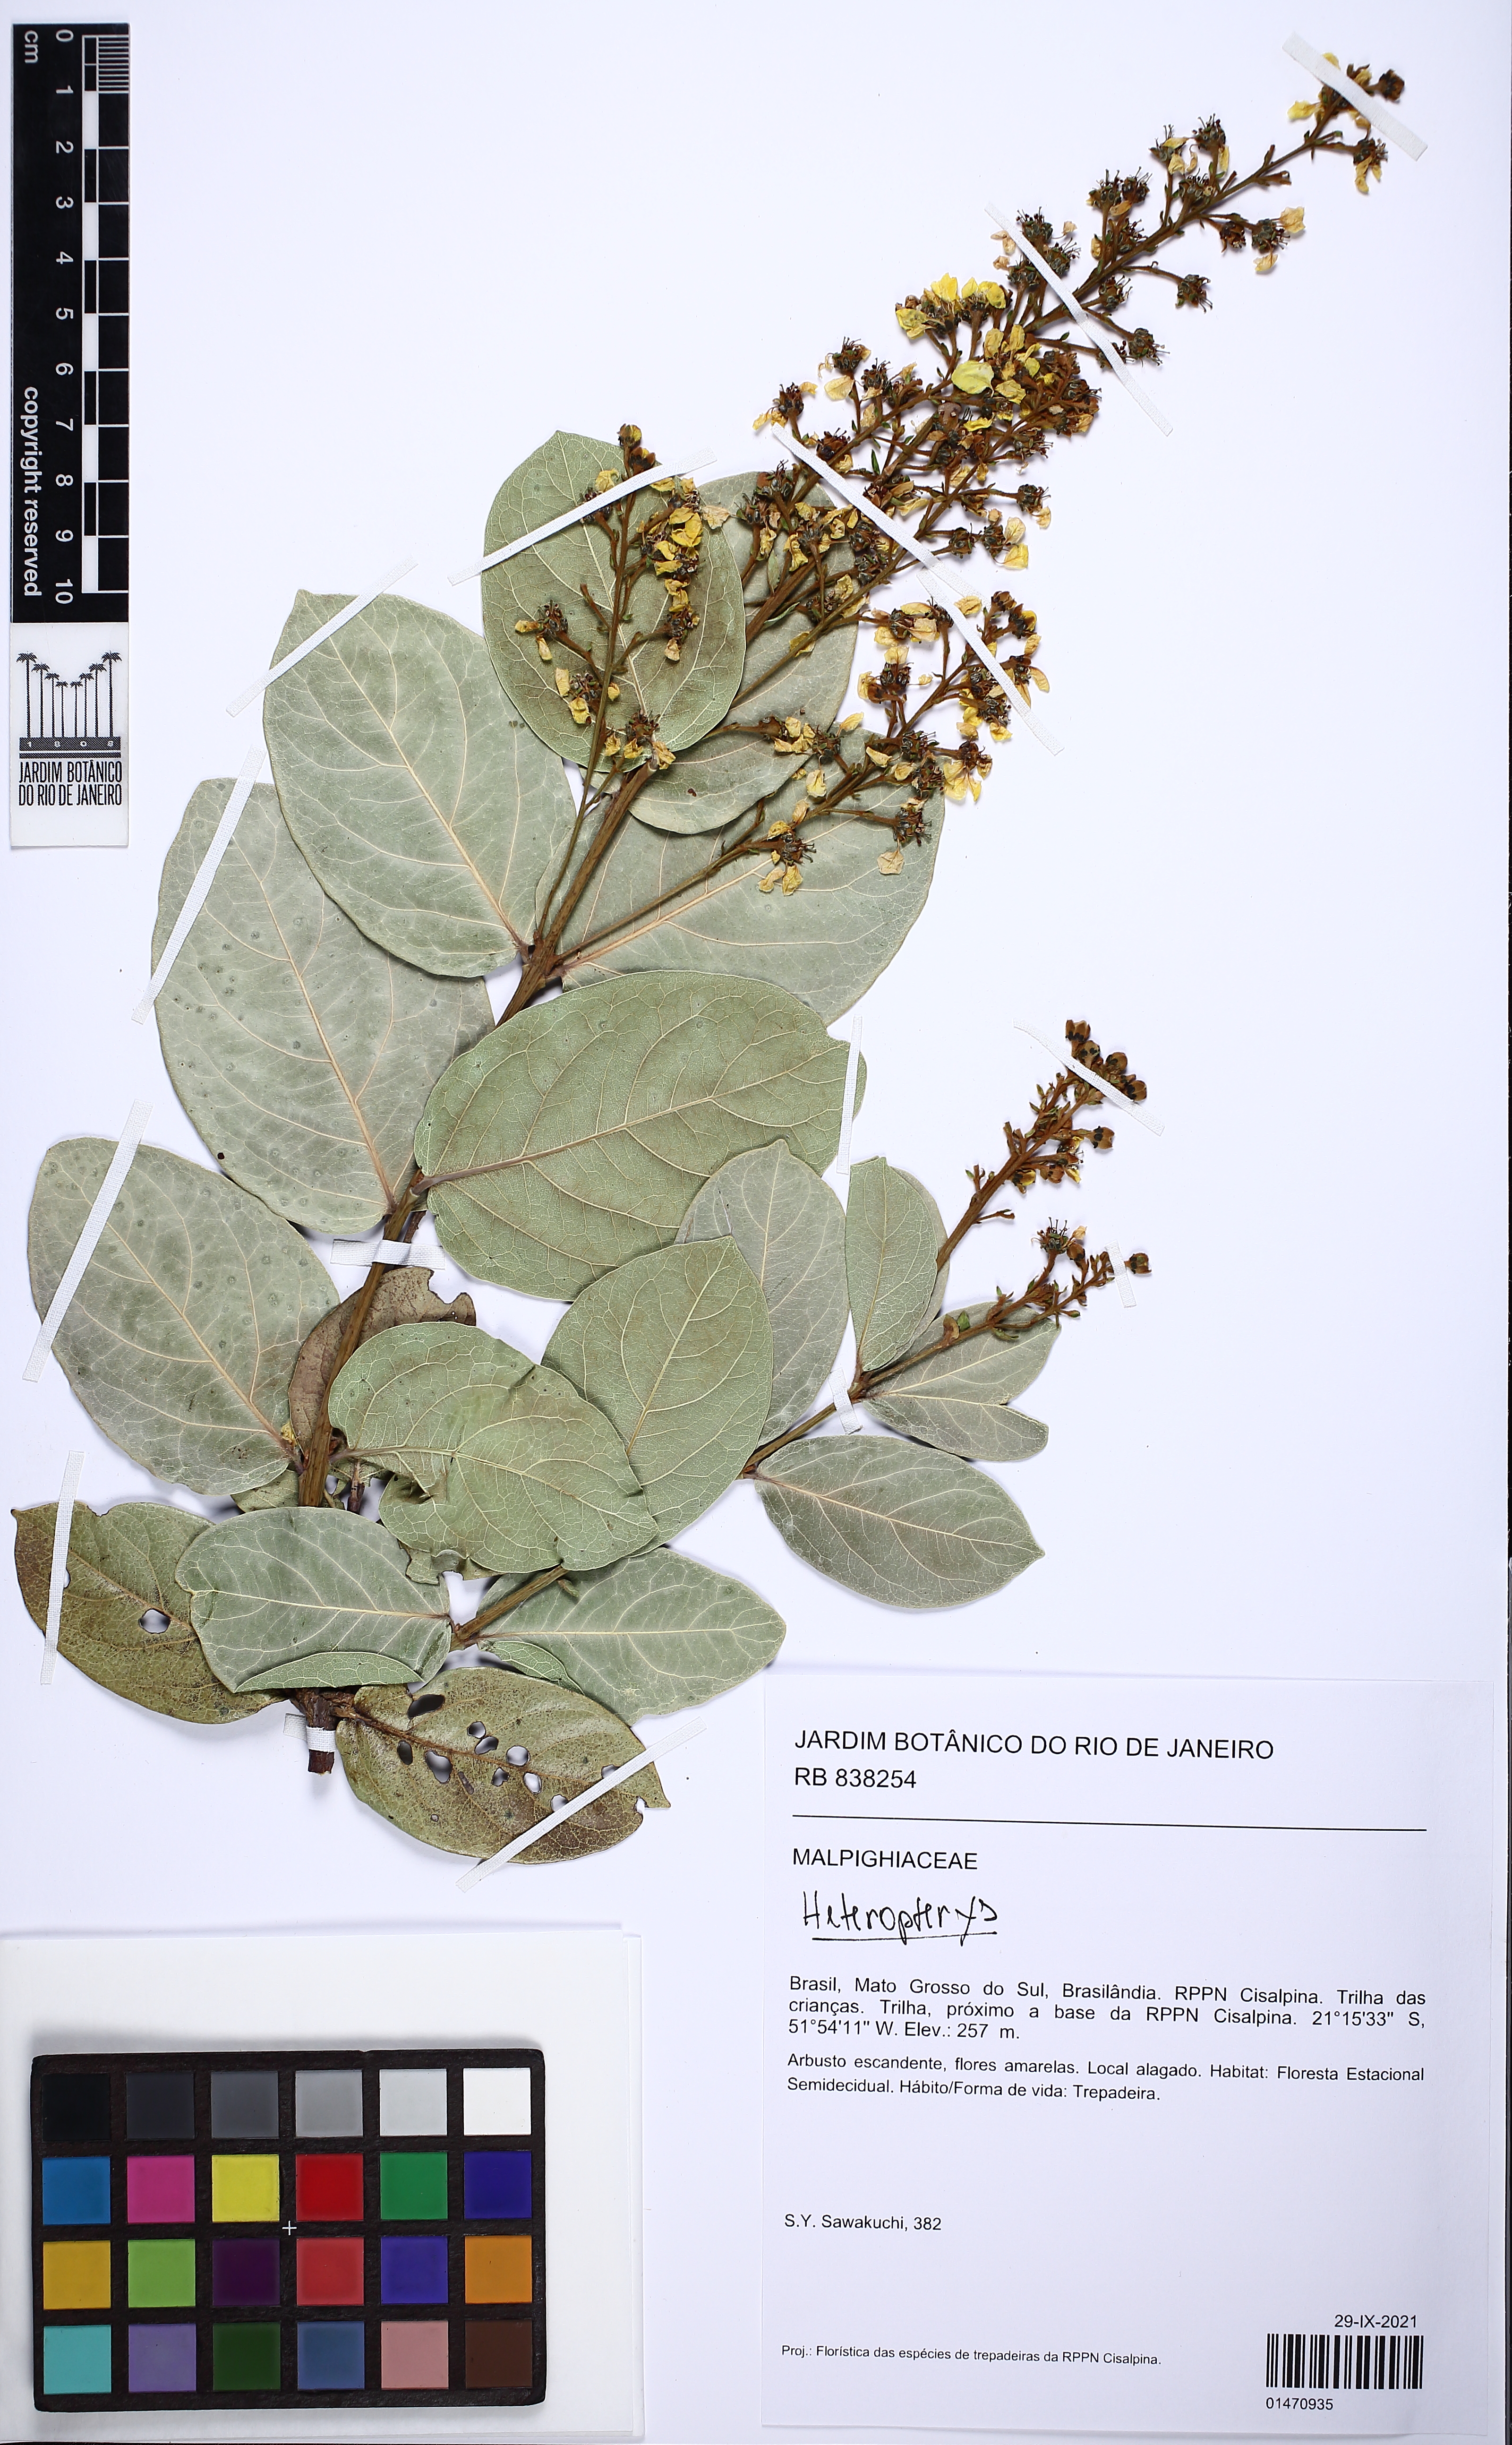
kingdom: Plantae
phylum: Tracheophyta
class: Magnoliopsida
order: Malpighiales
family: Malpighiaceae
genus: Heteropterys
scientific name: Heteropterys
